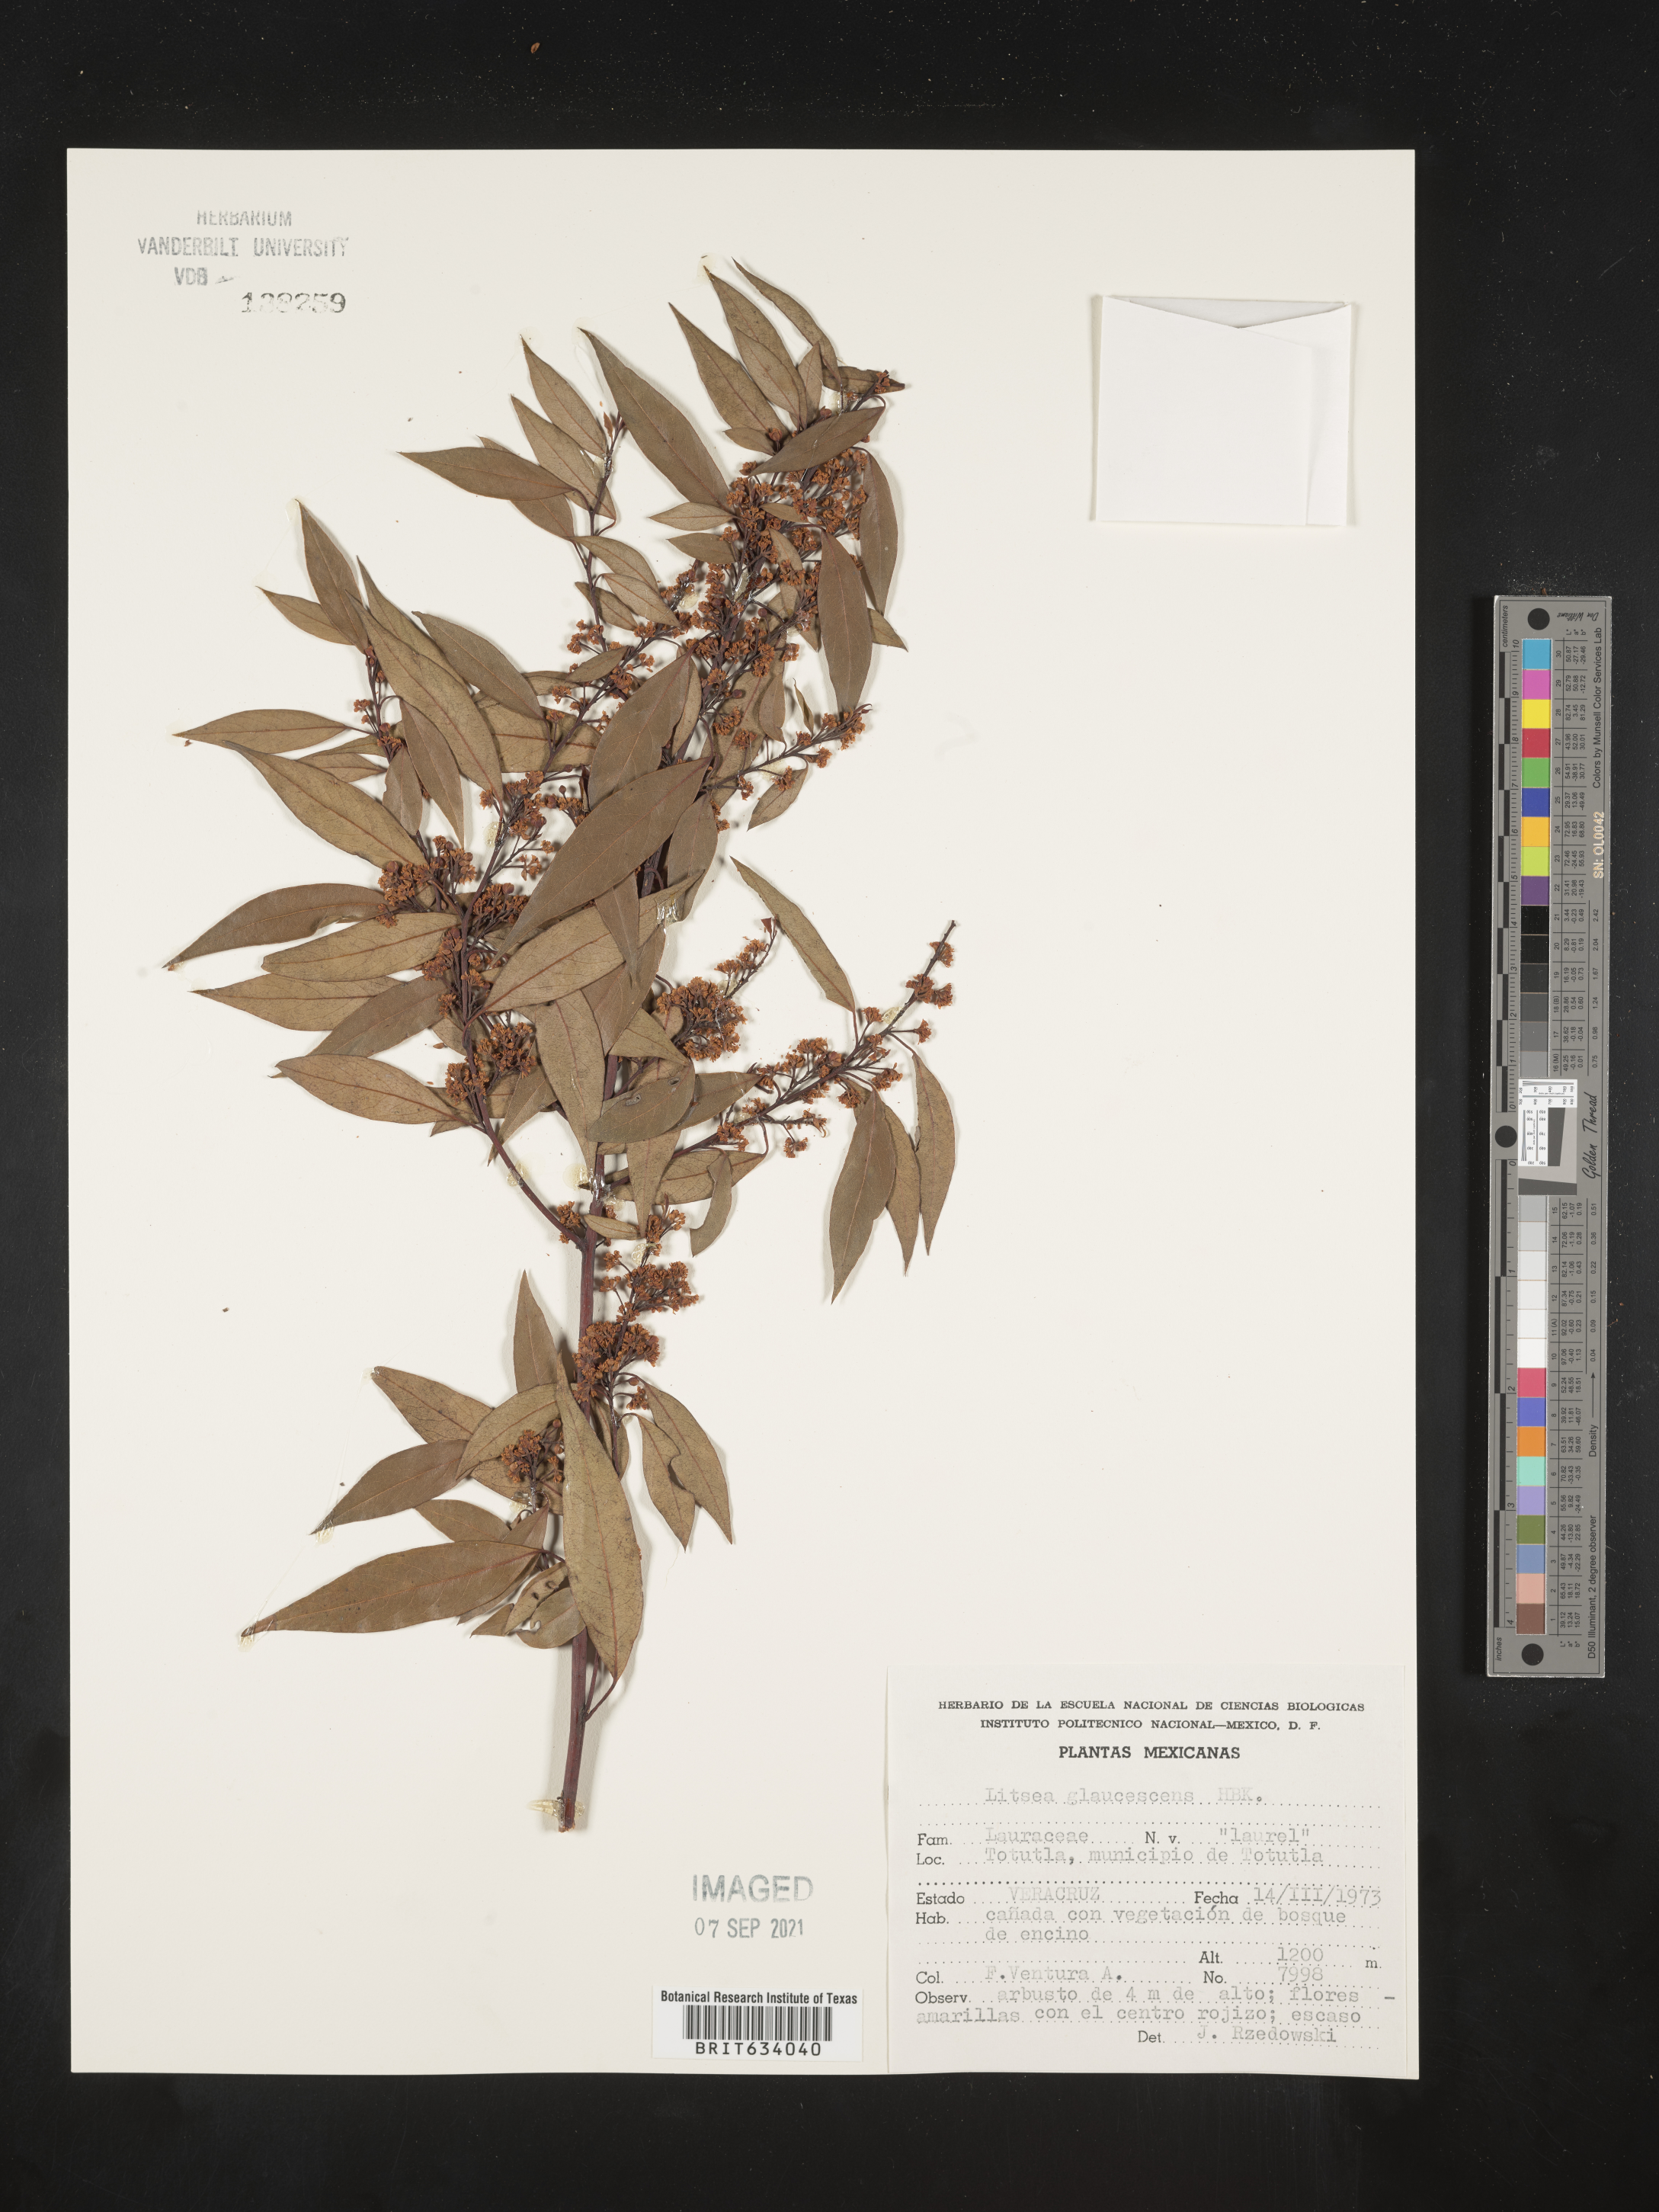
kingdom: Plantae
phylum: Tracheophyta
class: Magnoliopsida
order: Laurales
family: Lauraceae
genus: Litsea
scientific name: Litsea
